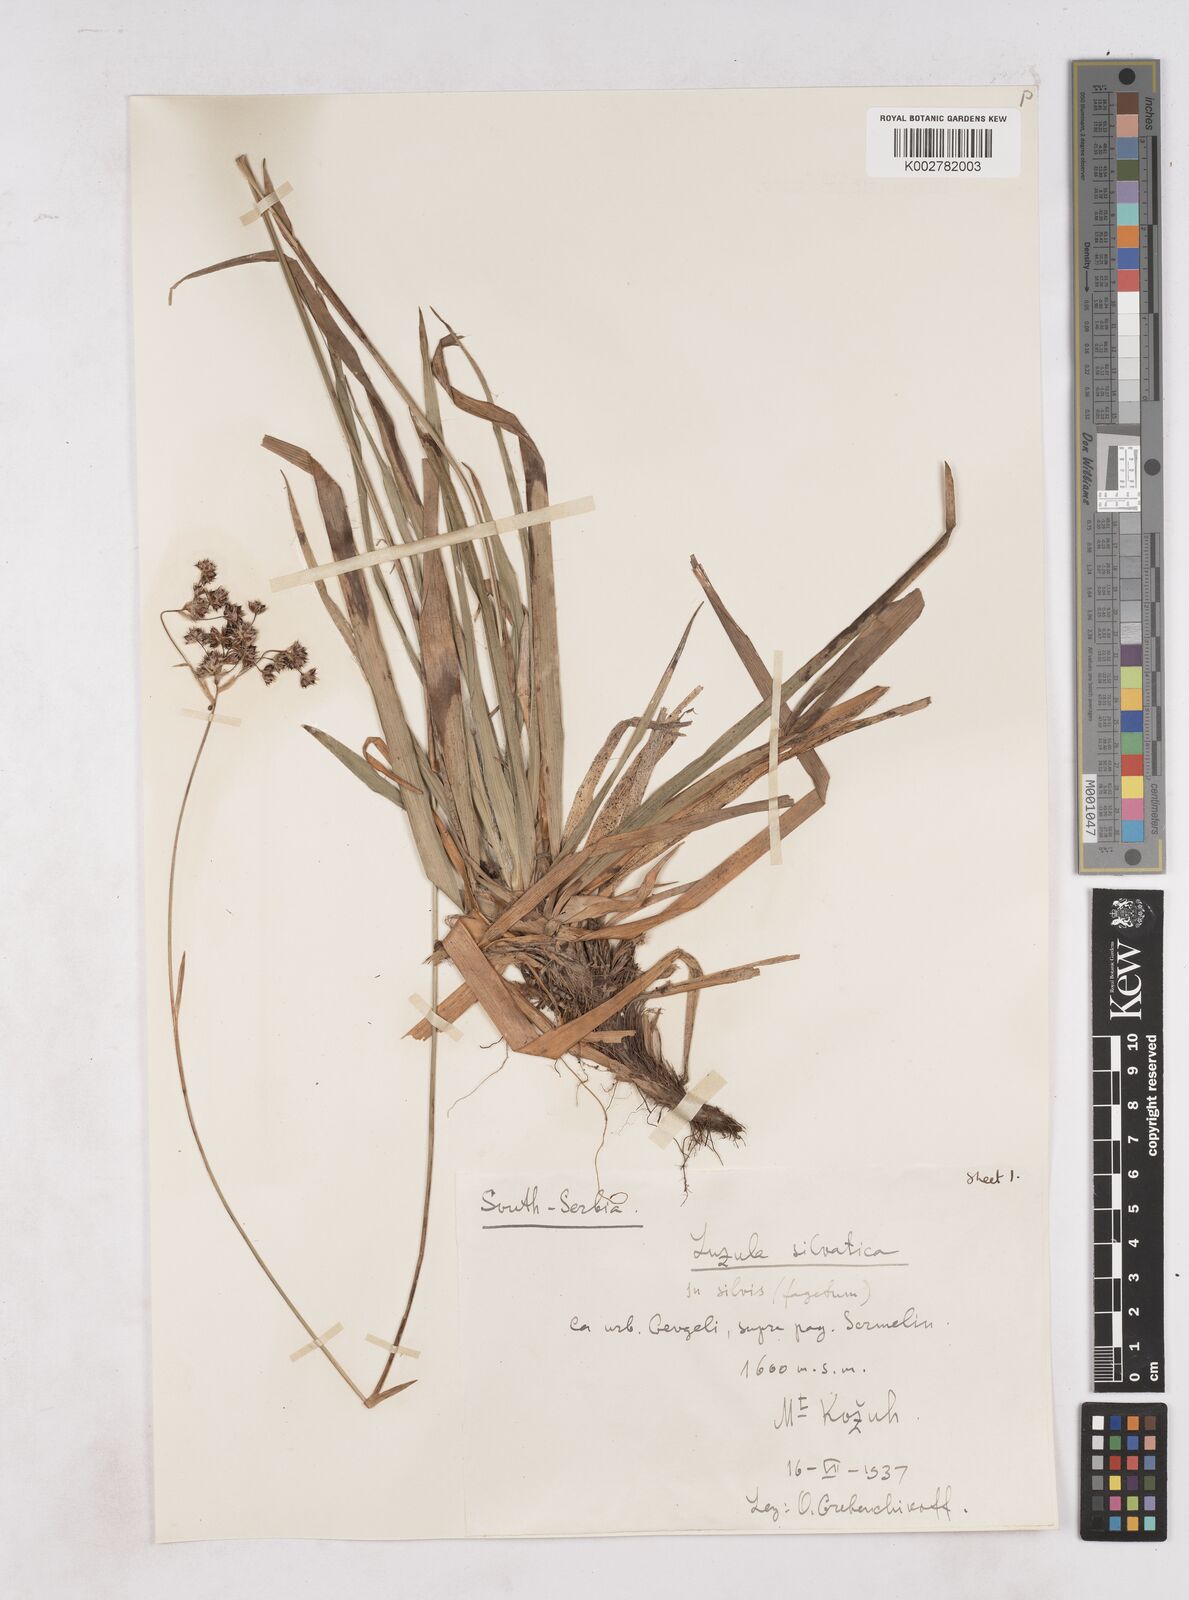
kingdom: Plantae
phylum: Tracheophyta
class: Liliopsida
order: Poales
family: Juncaceae
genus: Luzula
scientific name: Luzula sylvatica
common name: Great wood-rush
